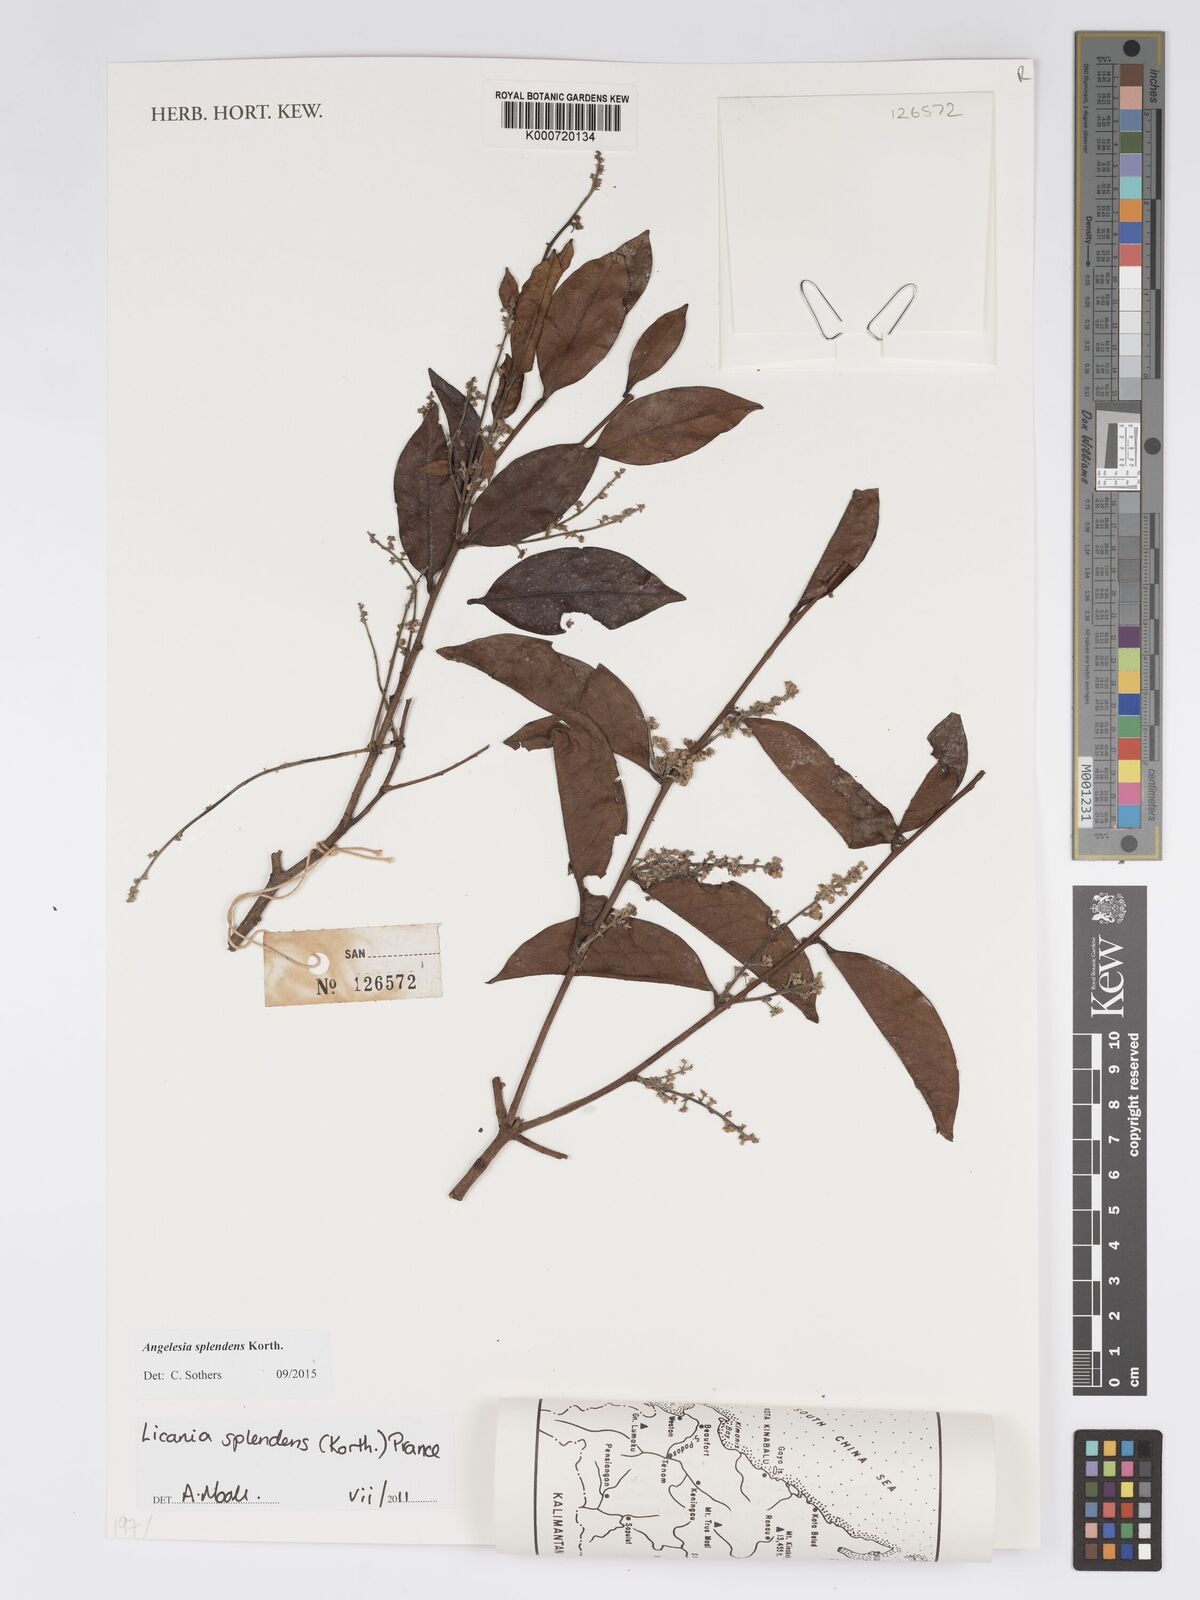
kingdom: Plantae
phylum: Tracheophyta
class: Magnoliopsida
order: Malpighiales
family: Chrysobalanaceae
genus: Angelesia
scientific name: Angelesia splendens
